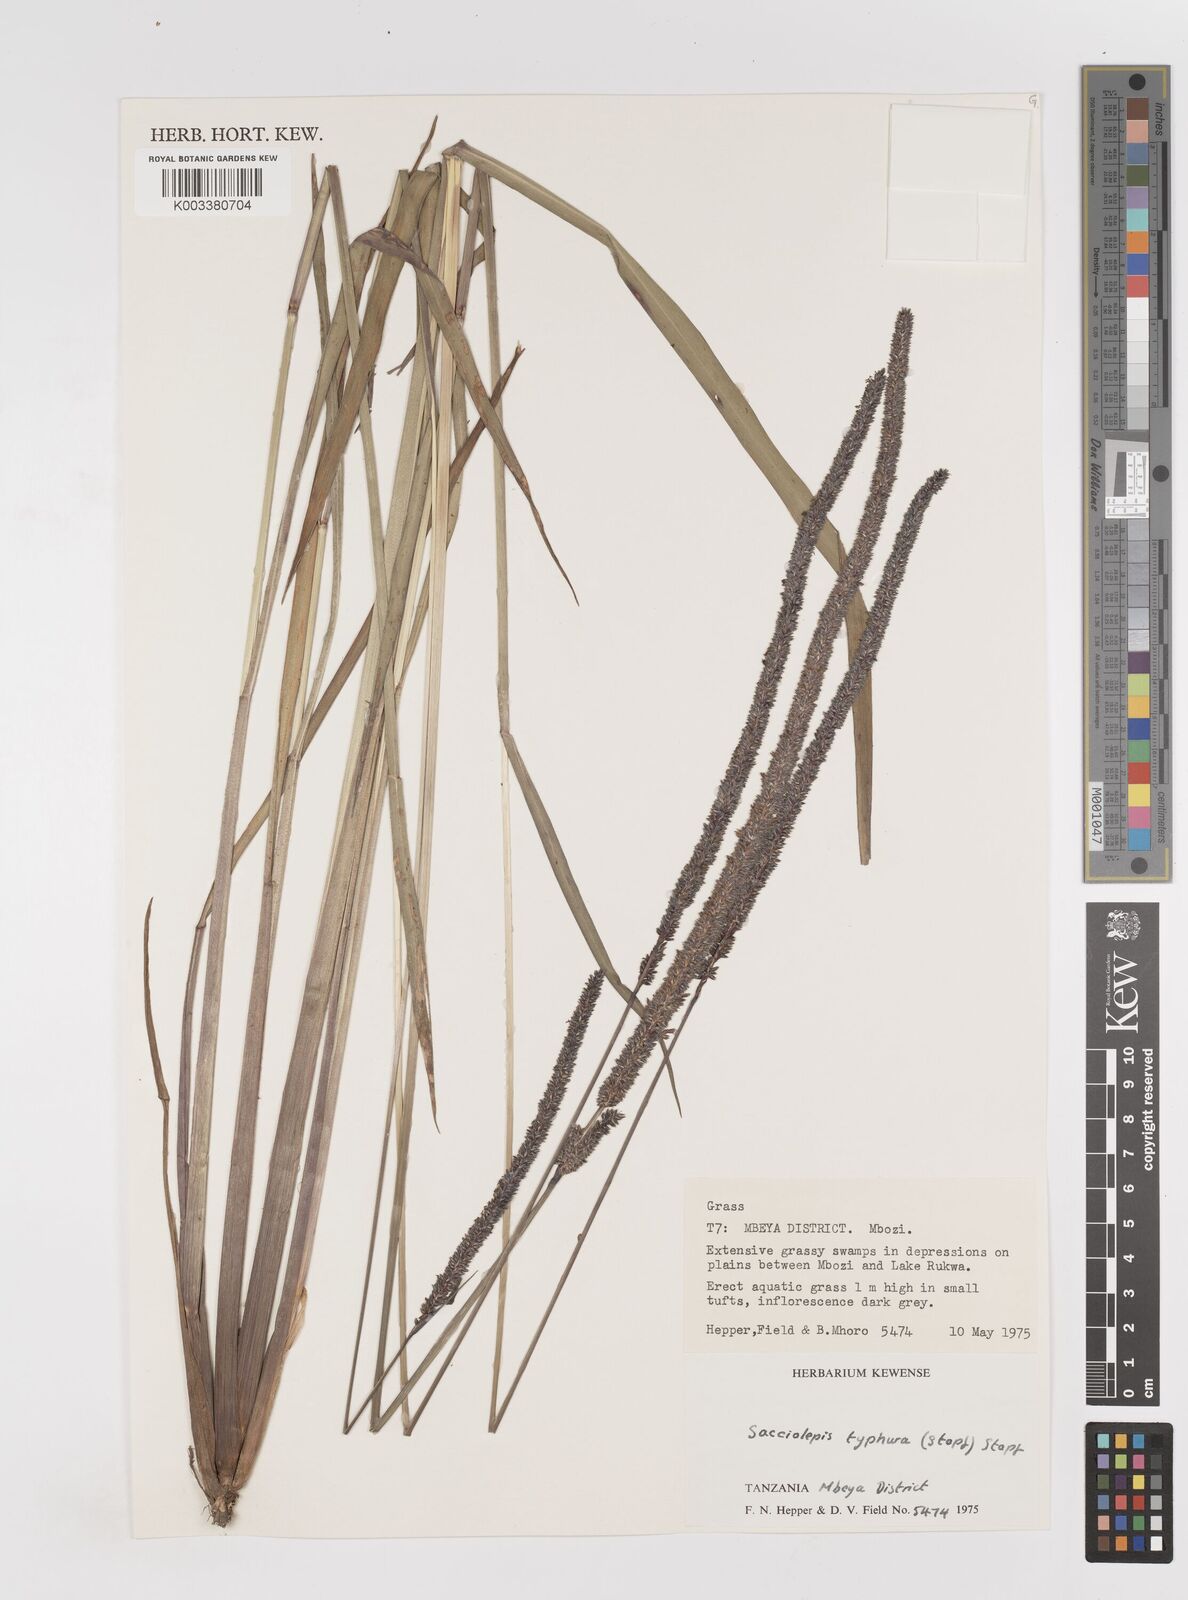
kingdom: Plantae
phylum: Tracheophyta
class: Liliopsida
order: Poales
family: Poaceae
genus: Sacciolepis
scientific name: Sacciolepis typhura
